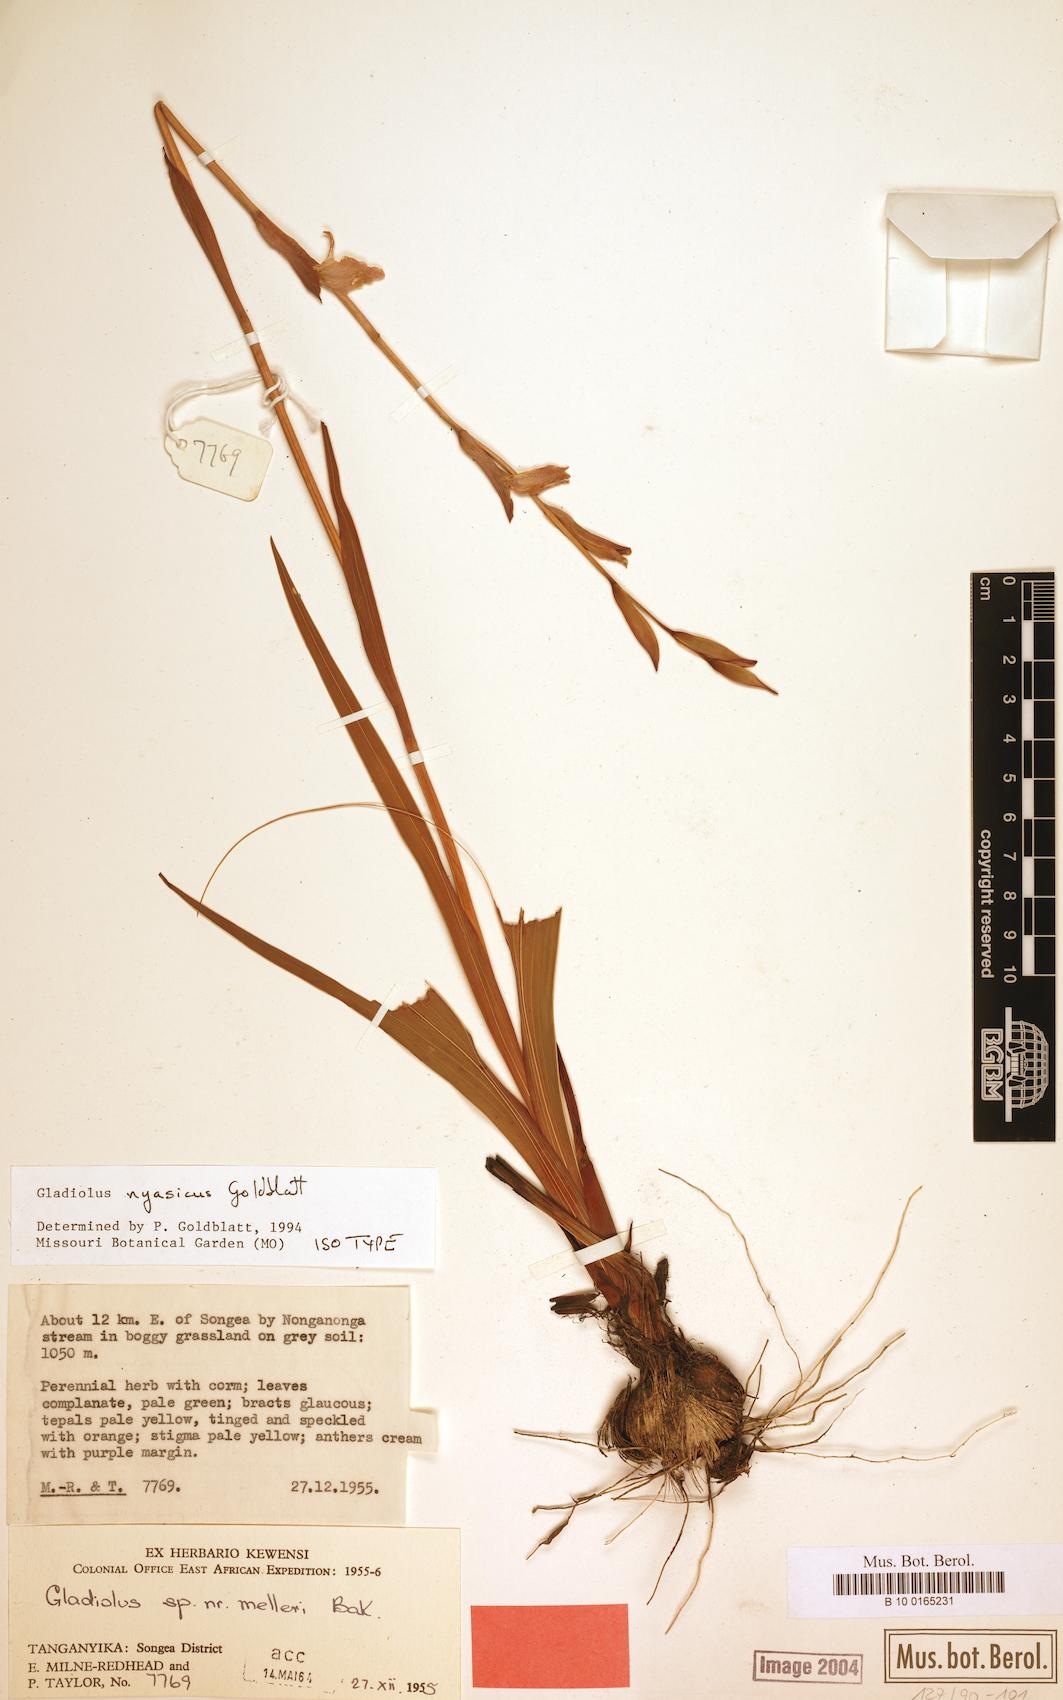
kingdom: Plantae
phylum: Tracheophyta
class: Liliopsida
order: Asparagales
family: Iridaceae
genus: Gladiolus
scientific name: Gladiolus nyasicus
